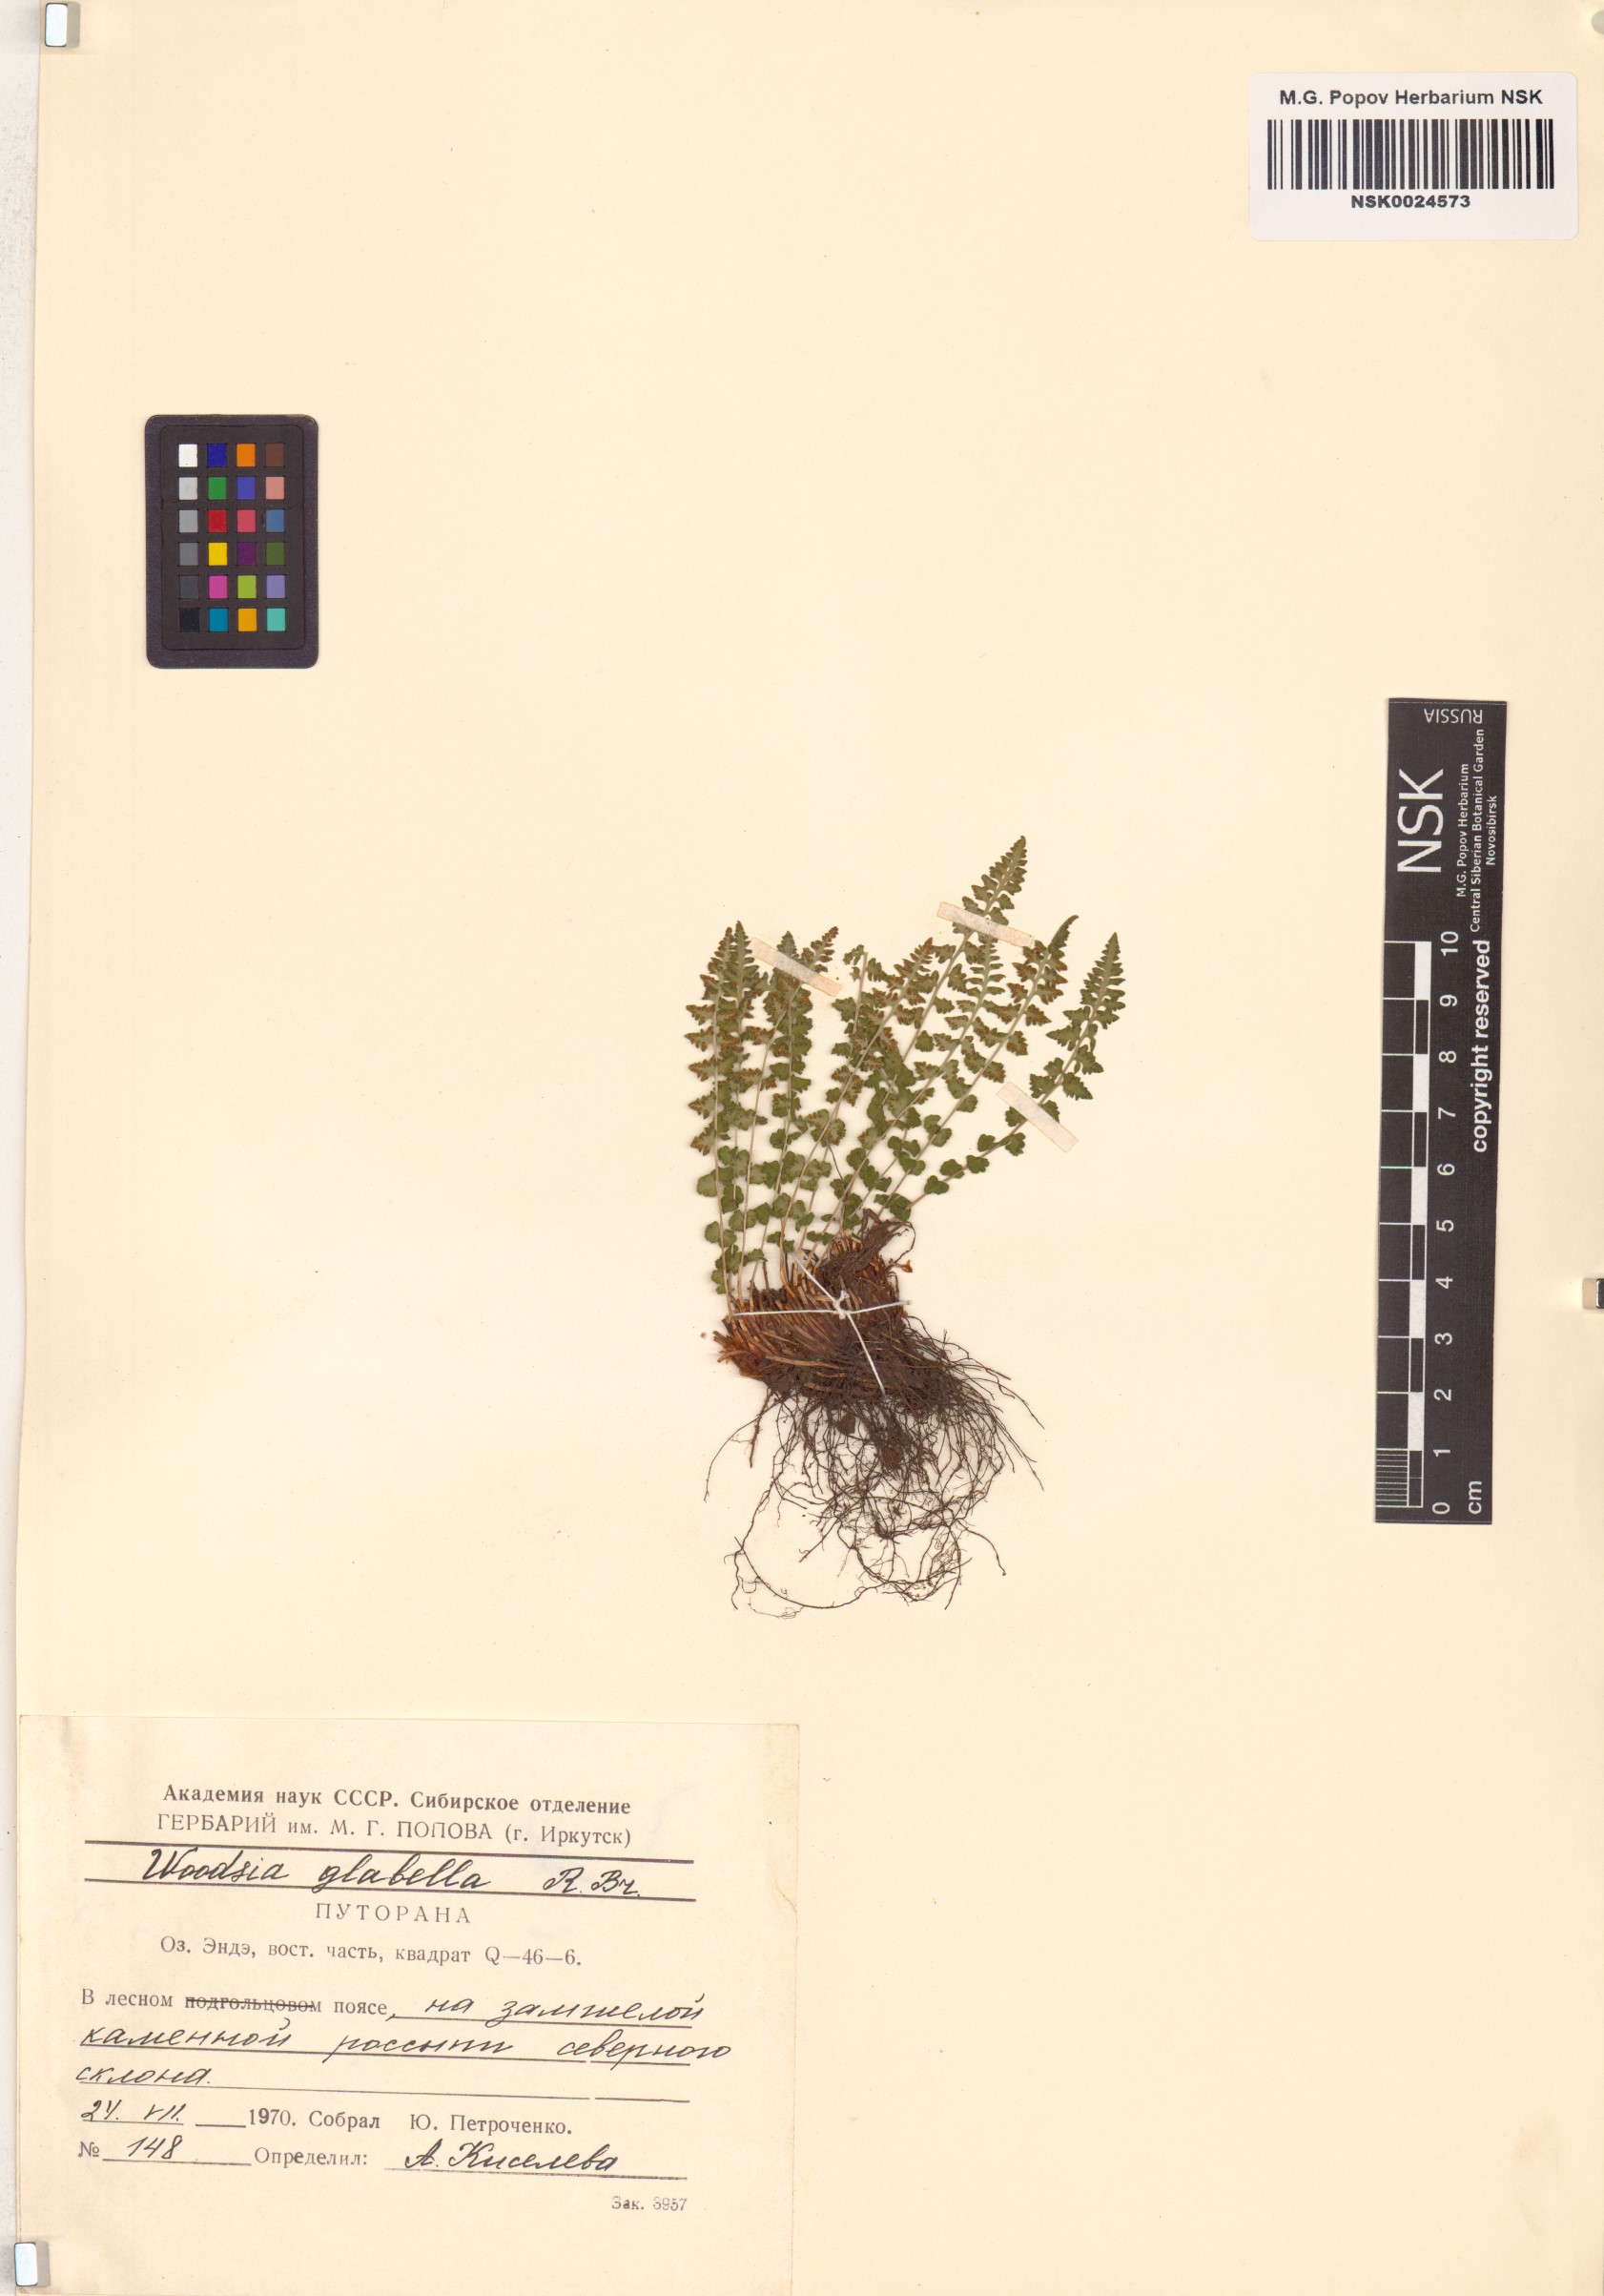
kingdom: Plantae
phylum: Tracheophyta
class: Polypodiopsida
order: Polypodiales
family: Woodsiaceae
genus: Woodsia
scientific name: Woodsia glabella
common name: Smooth woodsia
